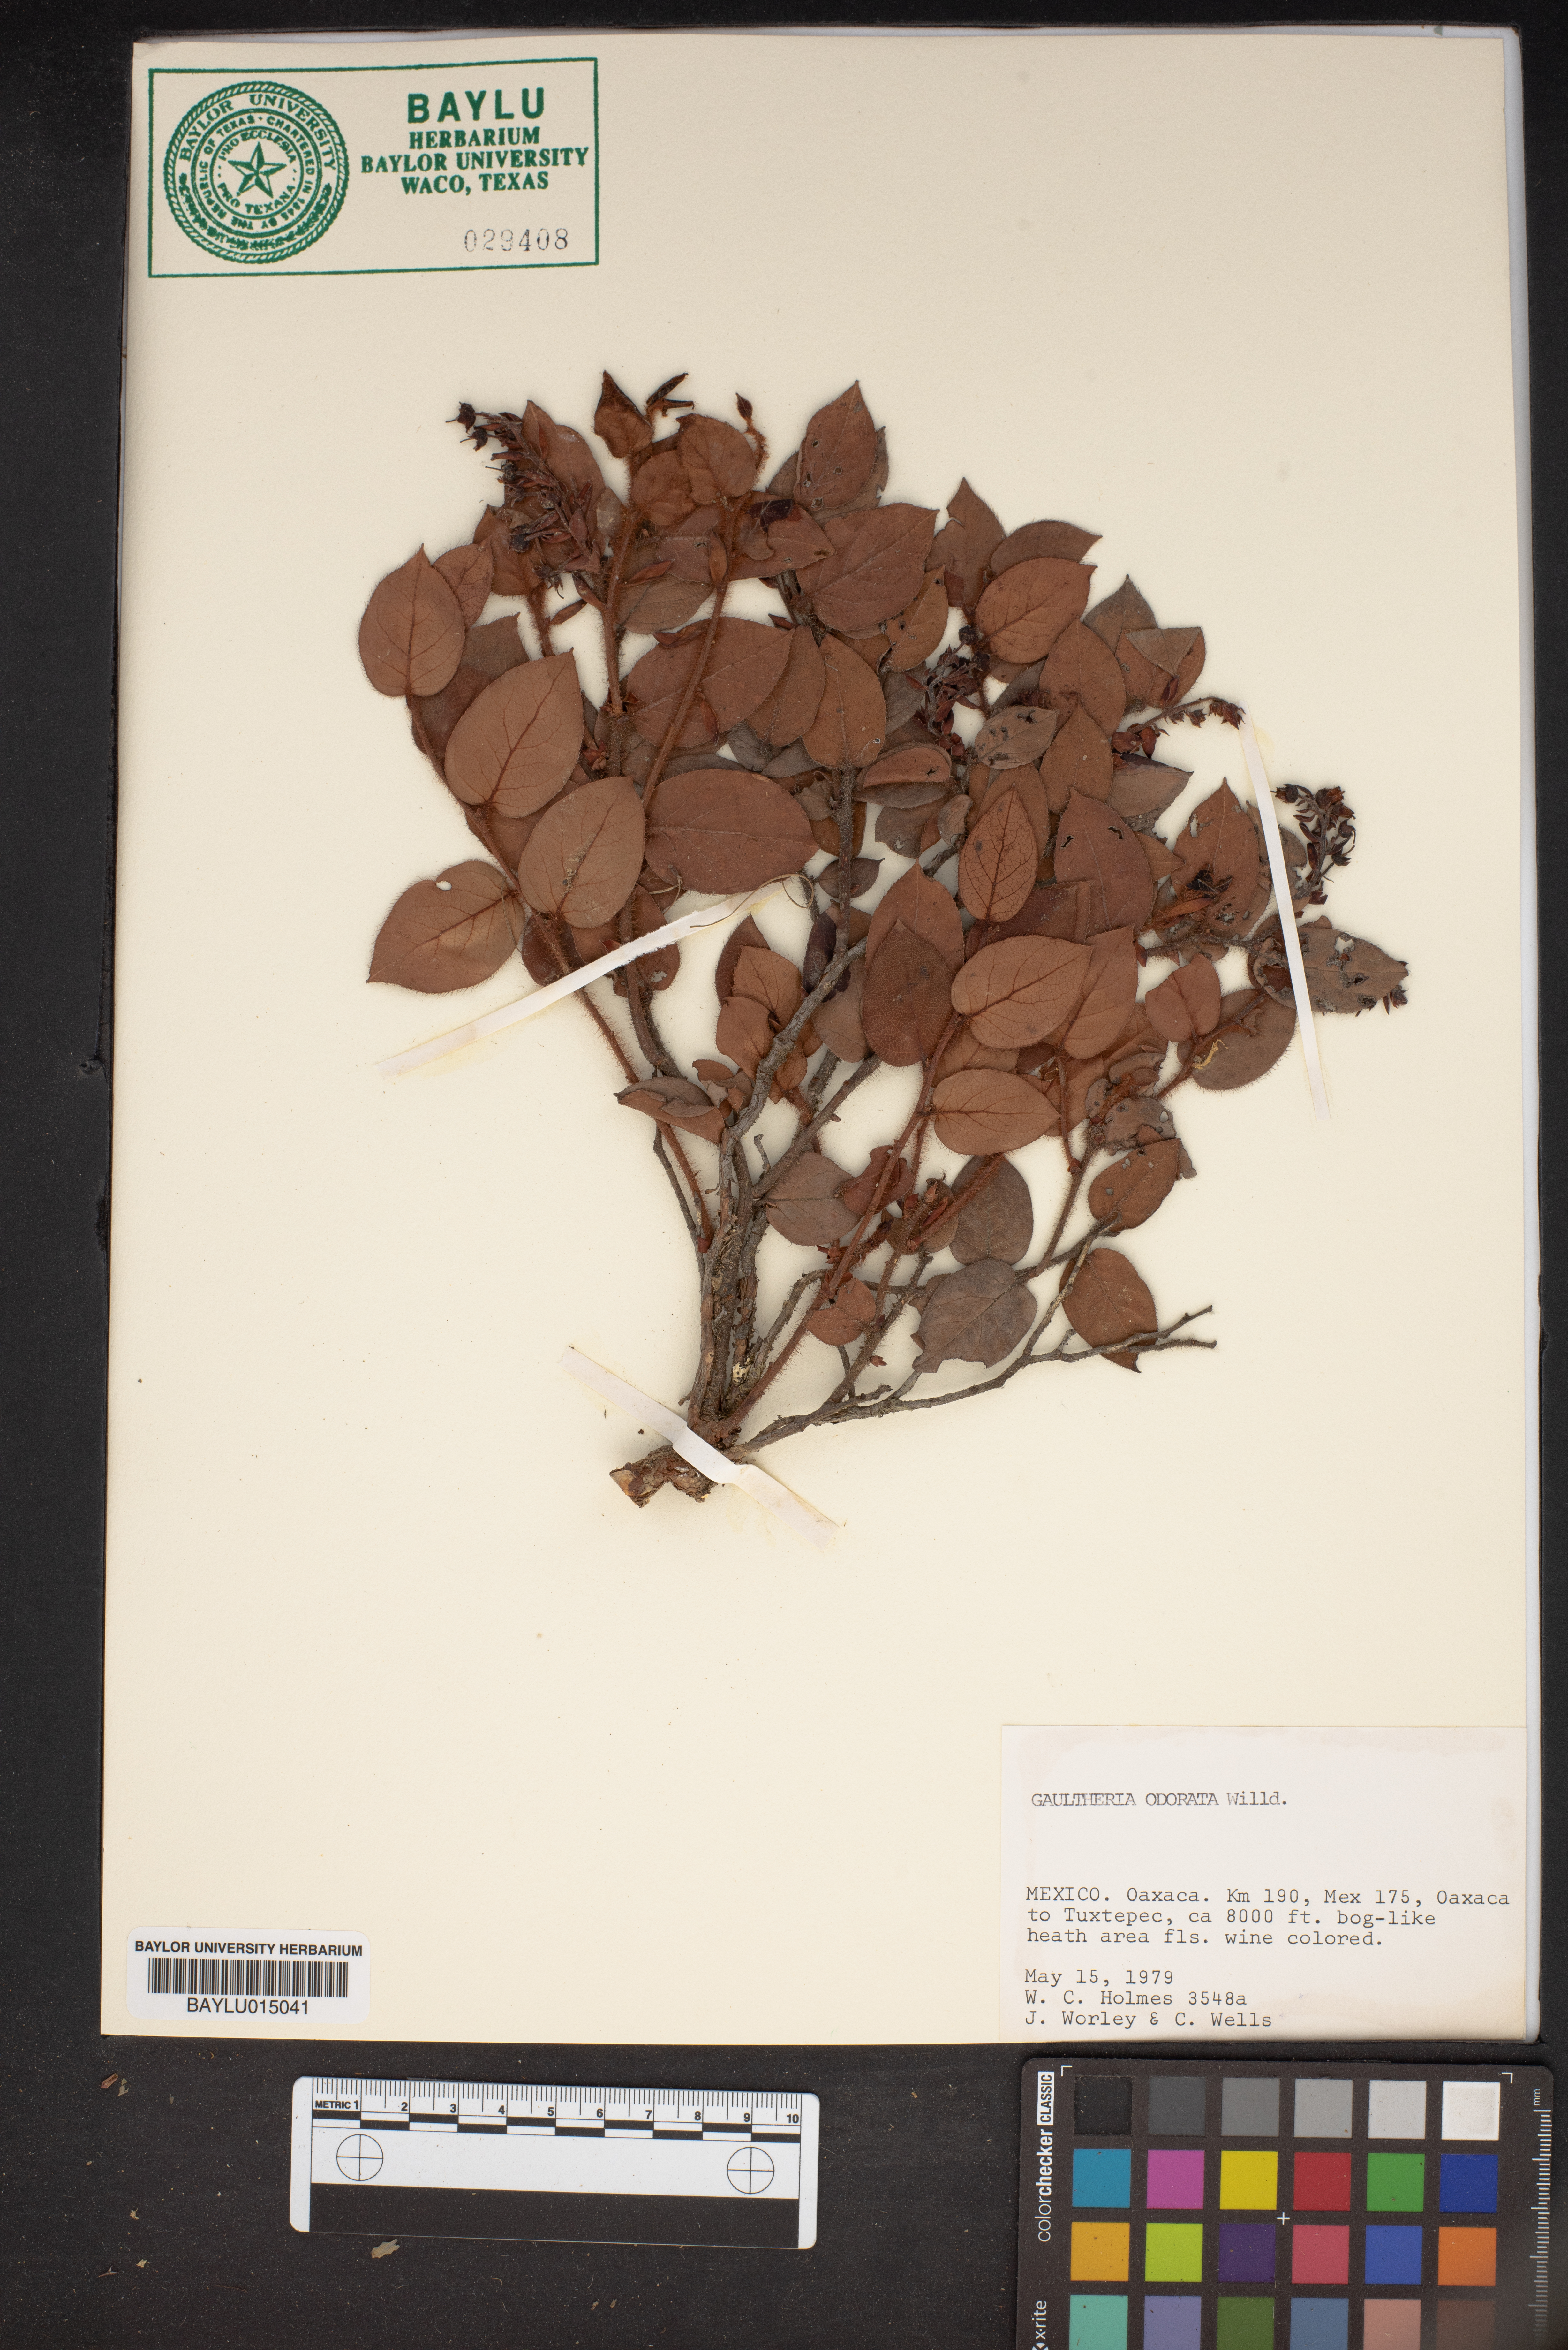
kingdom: Plantae
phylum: Tracheophyta
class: Magnoliopsida
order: Ericales
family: Ericaceae
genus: Gaultheria
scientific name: Gaultheria
